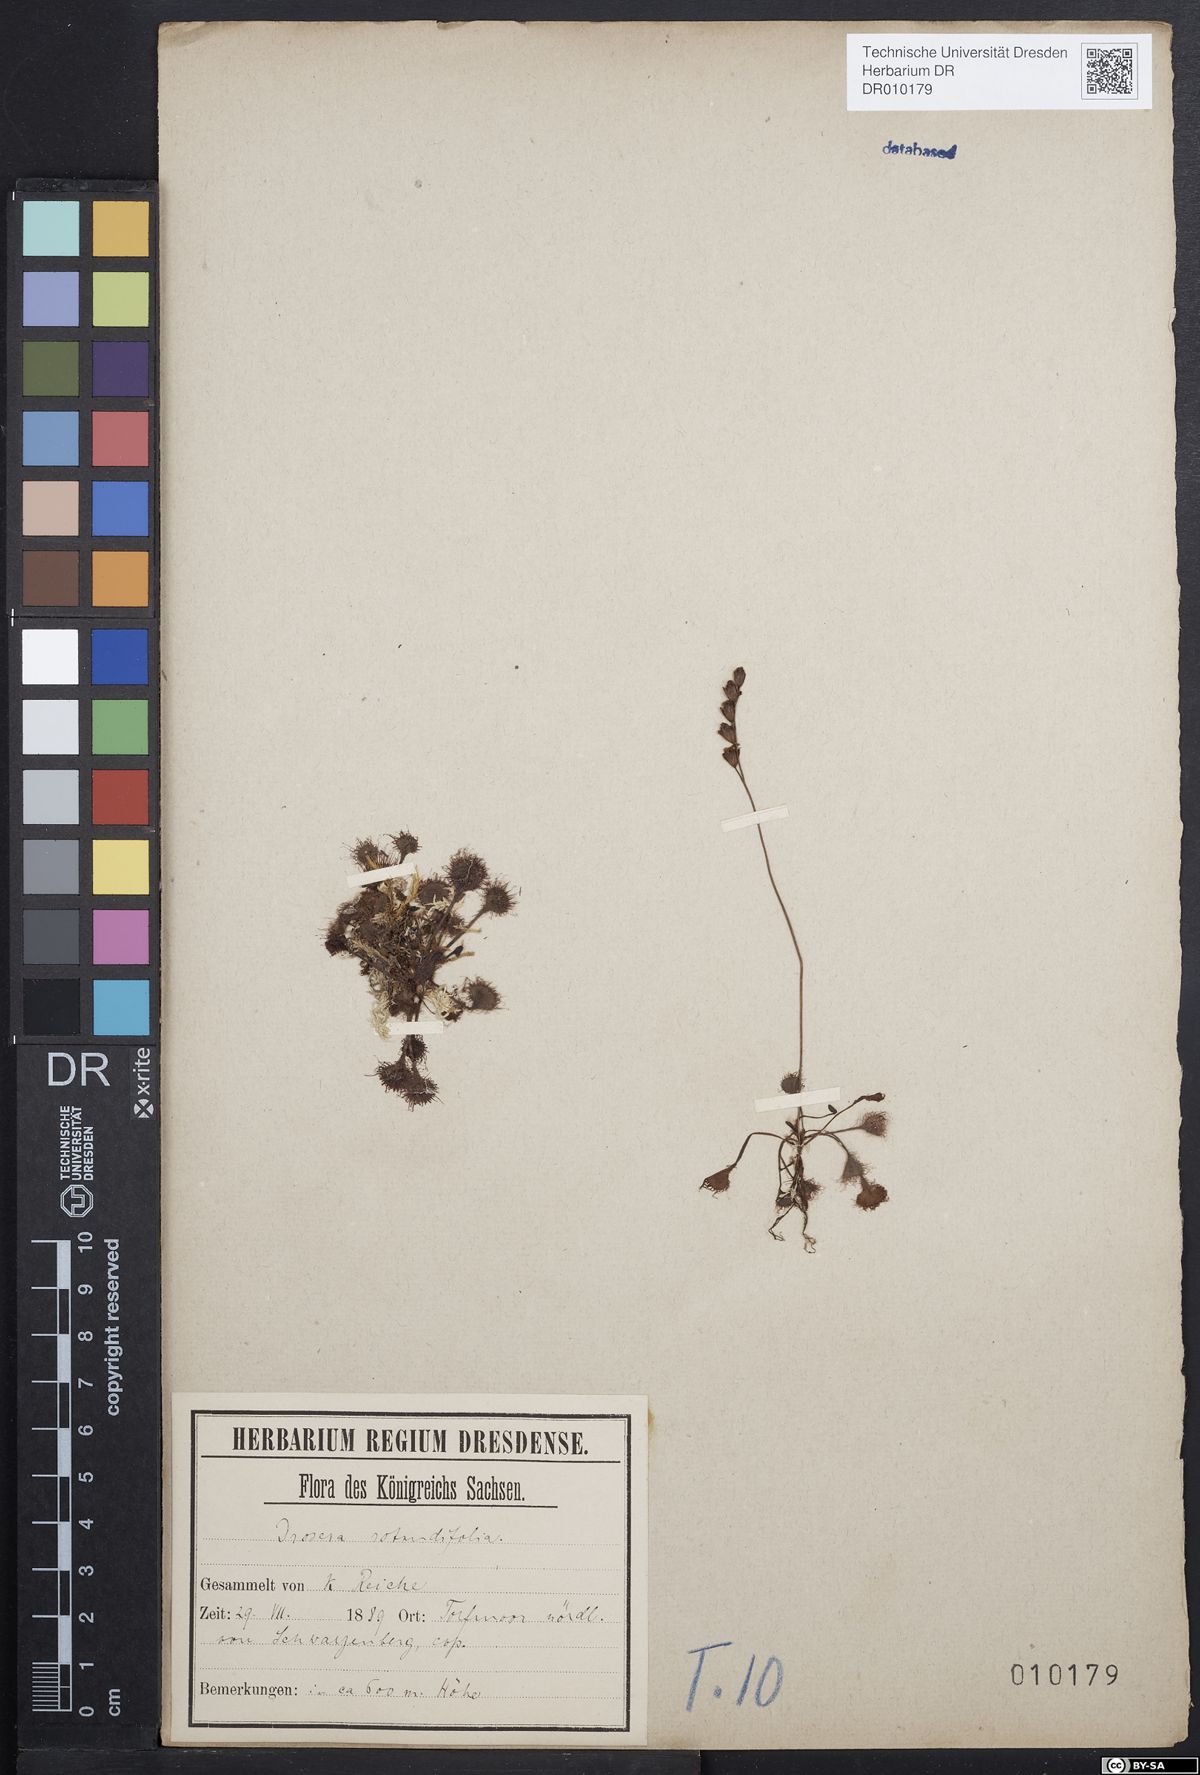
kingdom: Plantae
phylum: Tracheophyta
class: Magnoliopsida
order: Caryophyllales
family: Droseraceae
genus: Drosera
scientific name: Drosera rotundifolia
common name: Round-leaved sundew
